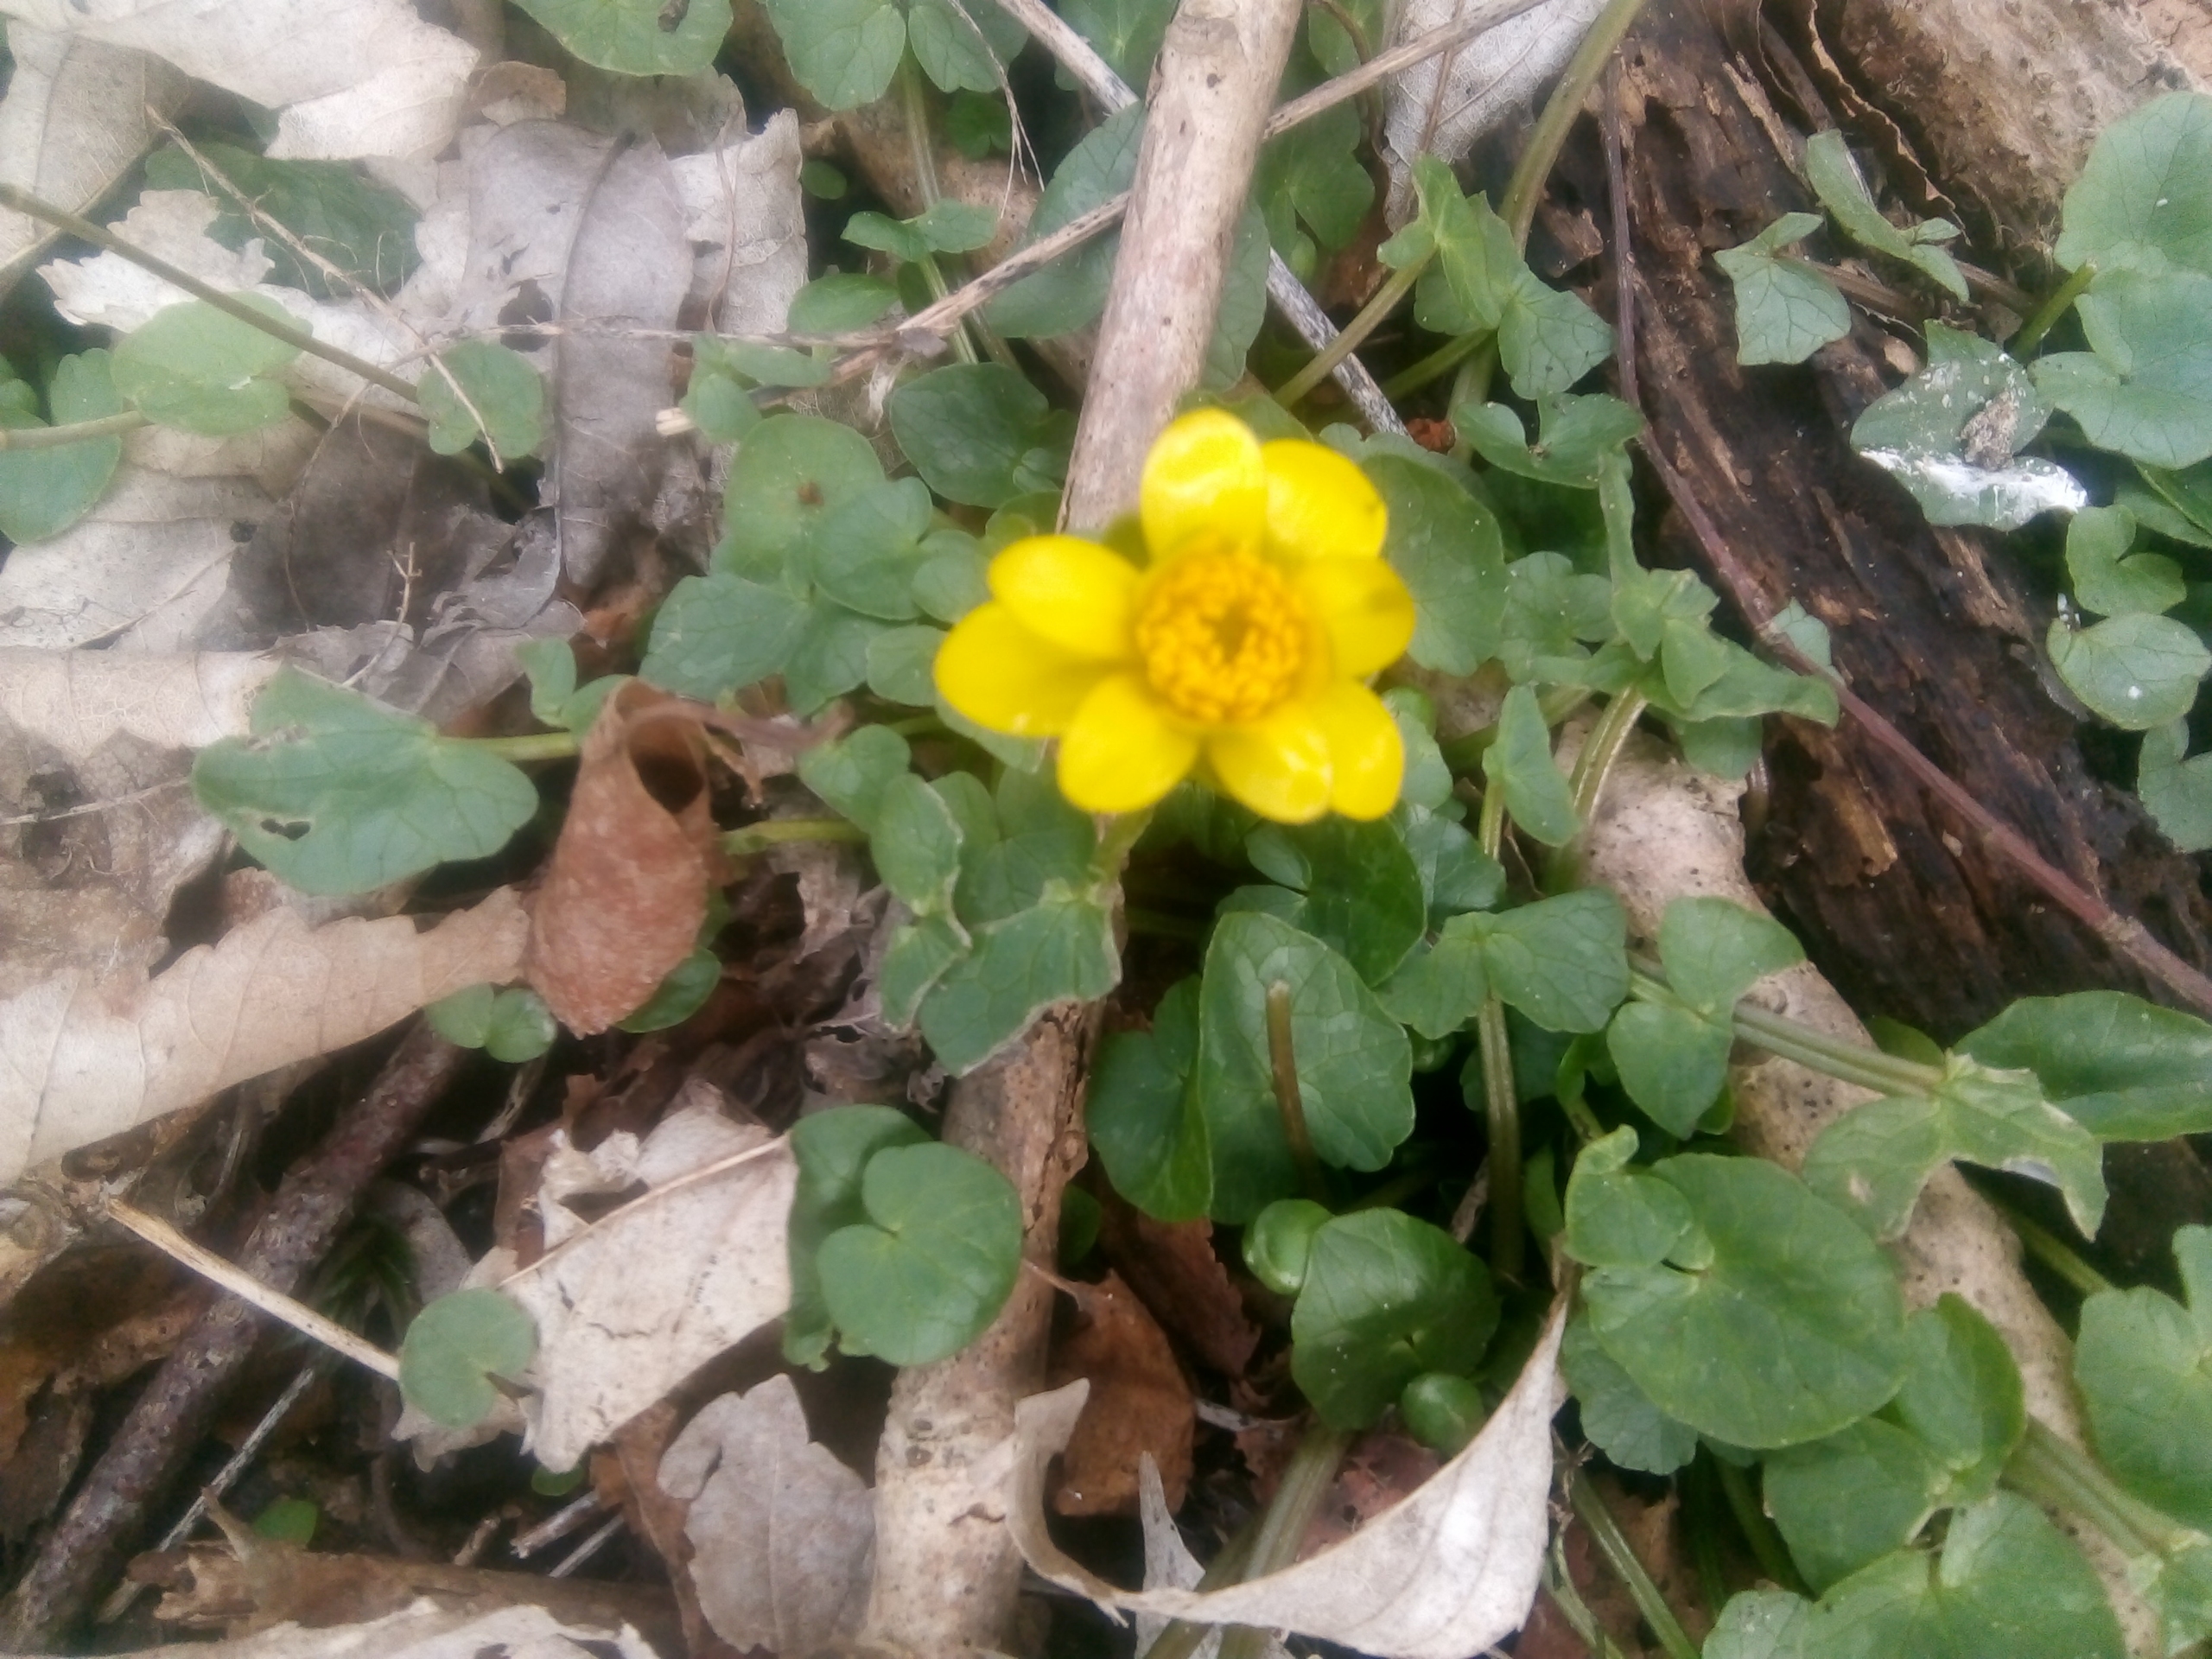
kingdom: Plantae
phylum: Tracheophyta
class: Magnoliopsida
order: Ranunculales
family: Ranunculaceae
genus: Ficaria
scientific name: Ficaria verna
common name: Vorterod
